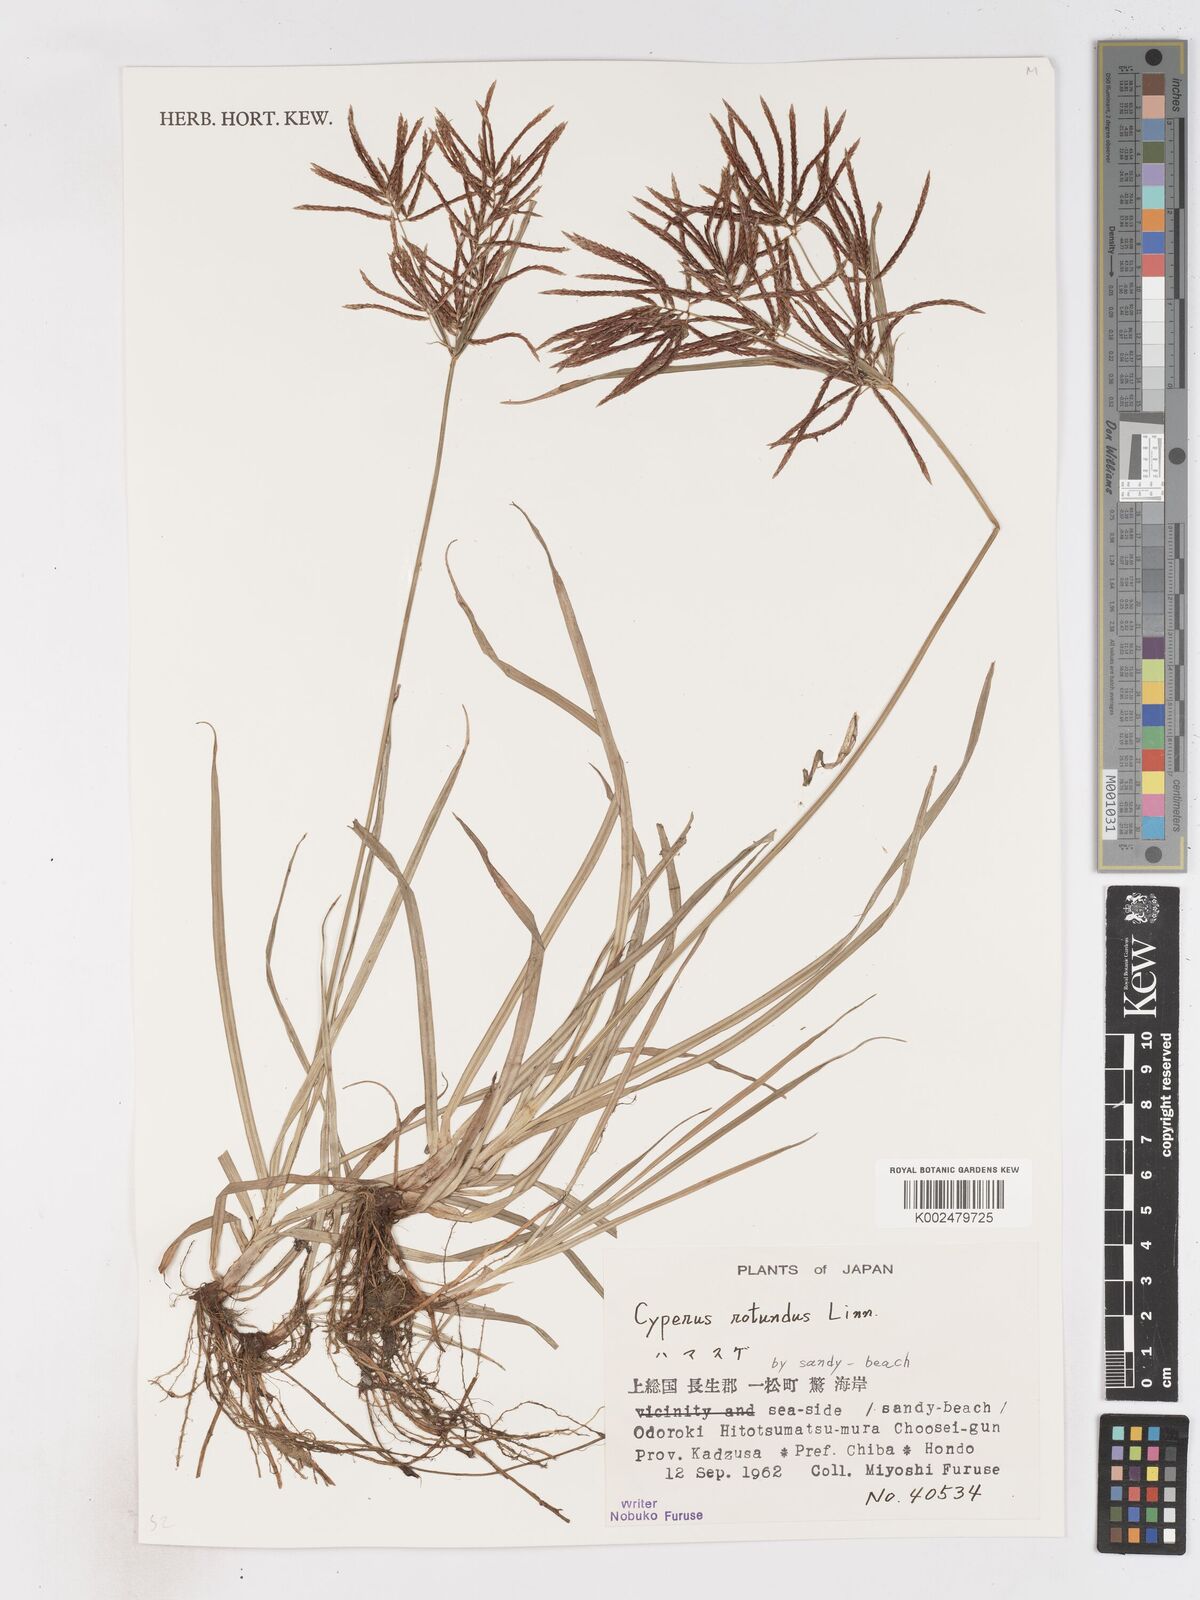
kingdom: Plantae
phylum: Tracheophyta
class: Liliopsida
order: Poales
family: Cyperaceae
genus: Cyperus
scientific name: Cyperus rotundus
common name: Nutgrass
